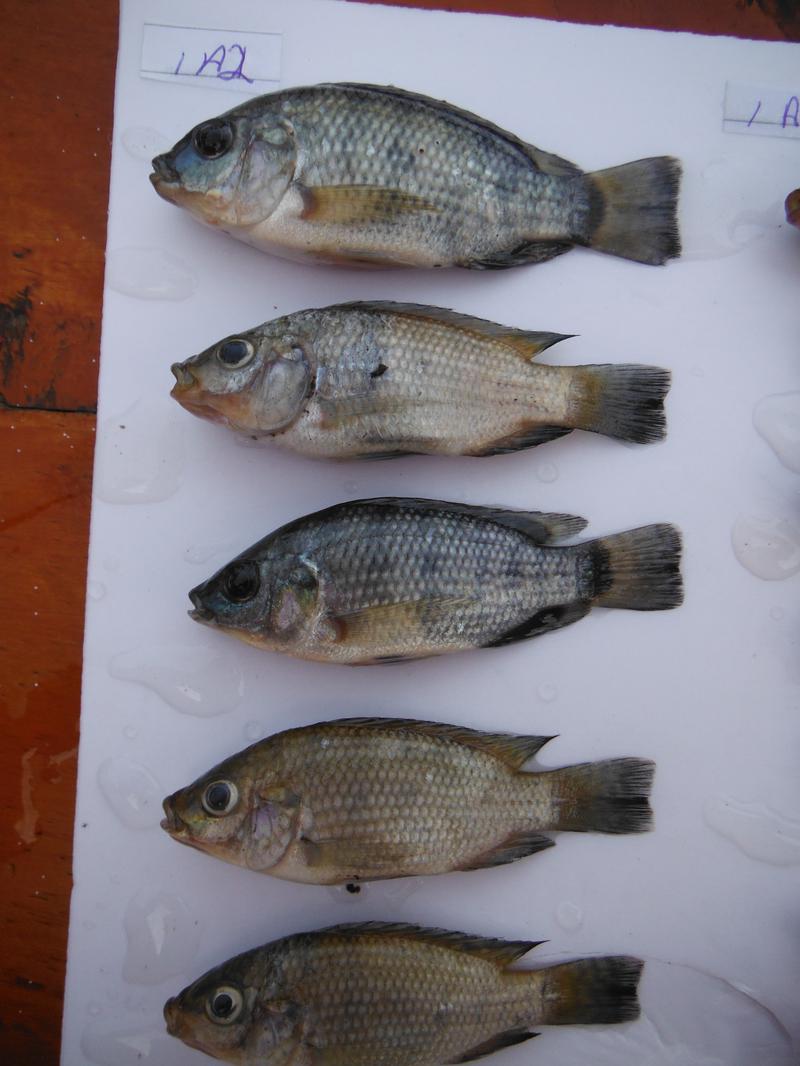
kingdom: Animalia
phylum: Chordata
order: Perciformes
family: Cichlidae
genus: Oreochromis
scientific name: Oreochromis urolepis
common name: Wami tilapia
